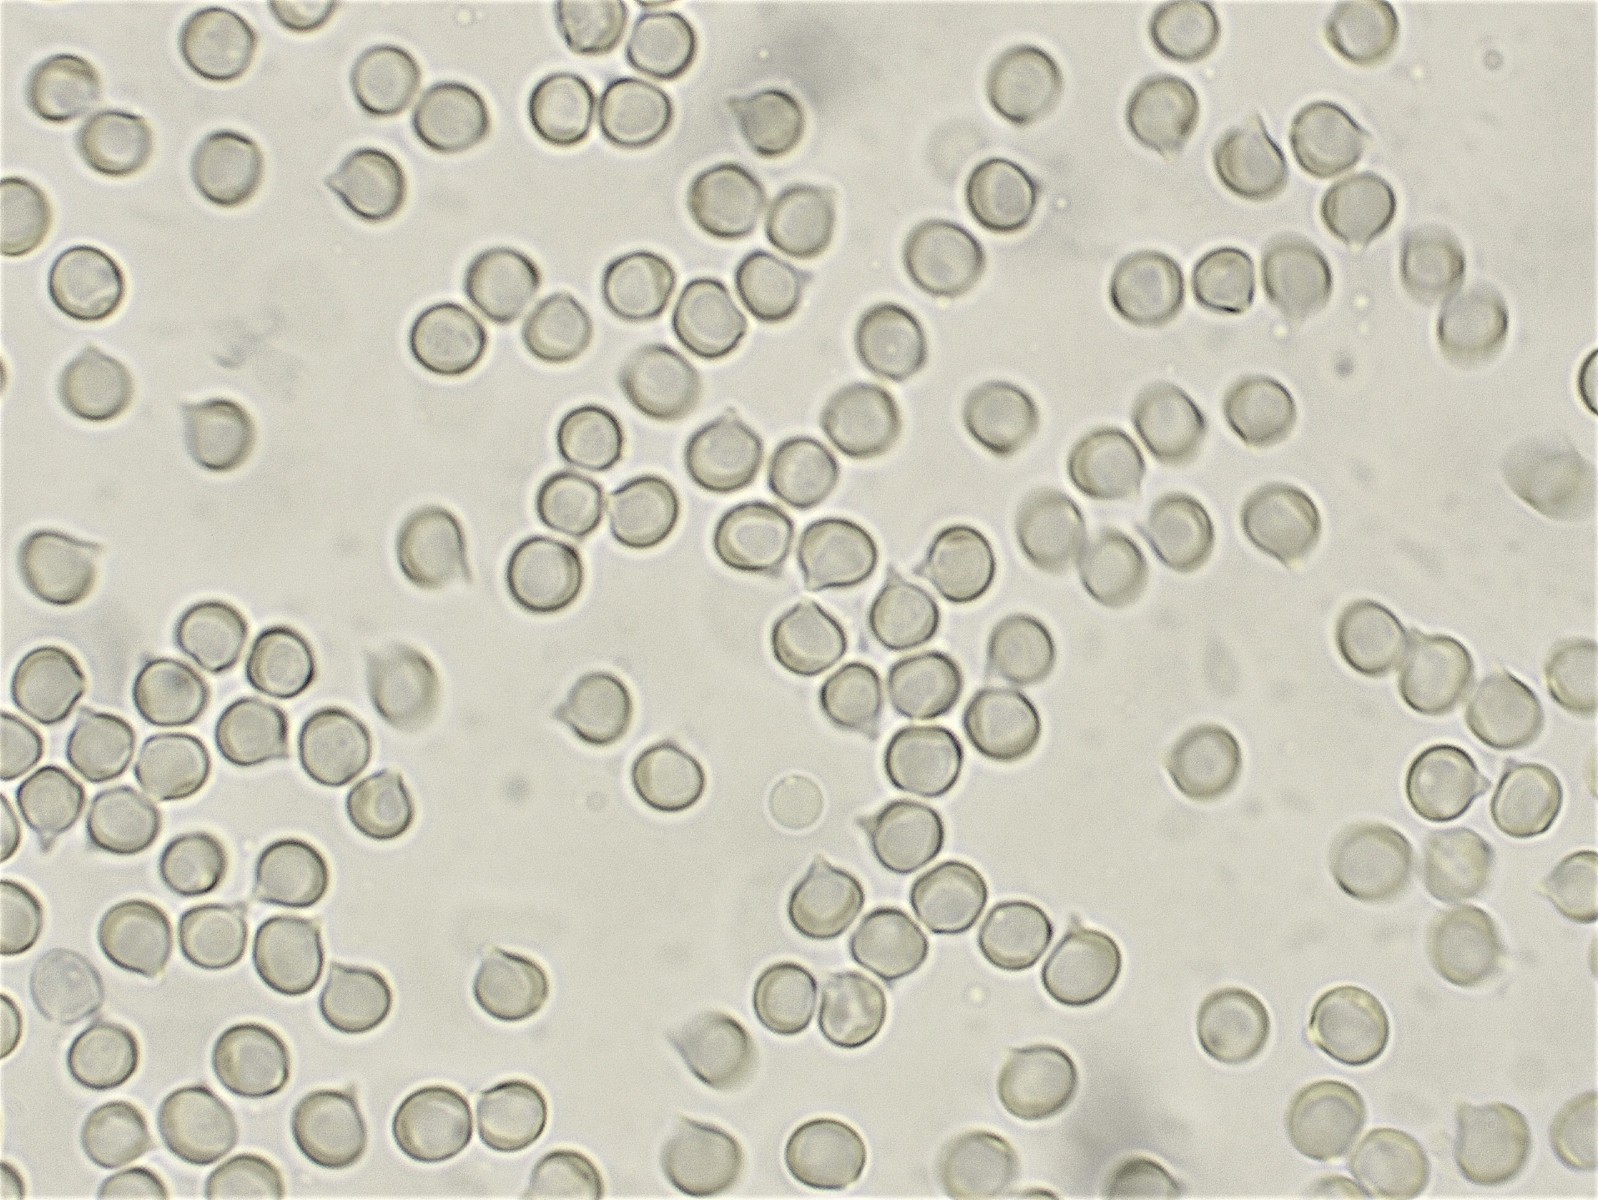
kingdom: Fungi
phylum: Basidiomycota
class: Agaricomycetes
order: Russulales
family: Peniophoraceae
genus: Gloiothele
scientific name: Gloiothele citrina
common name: citronskorpe
